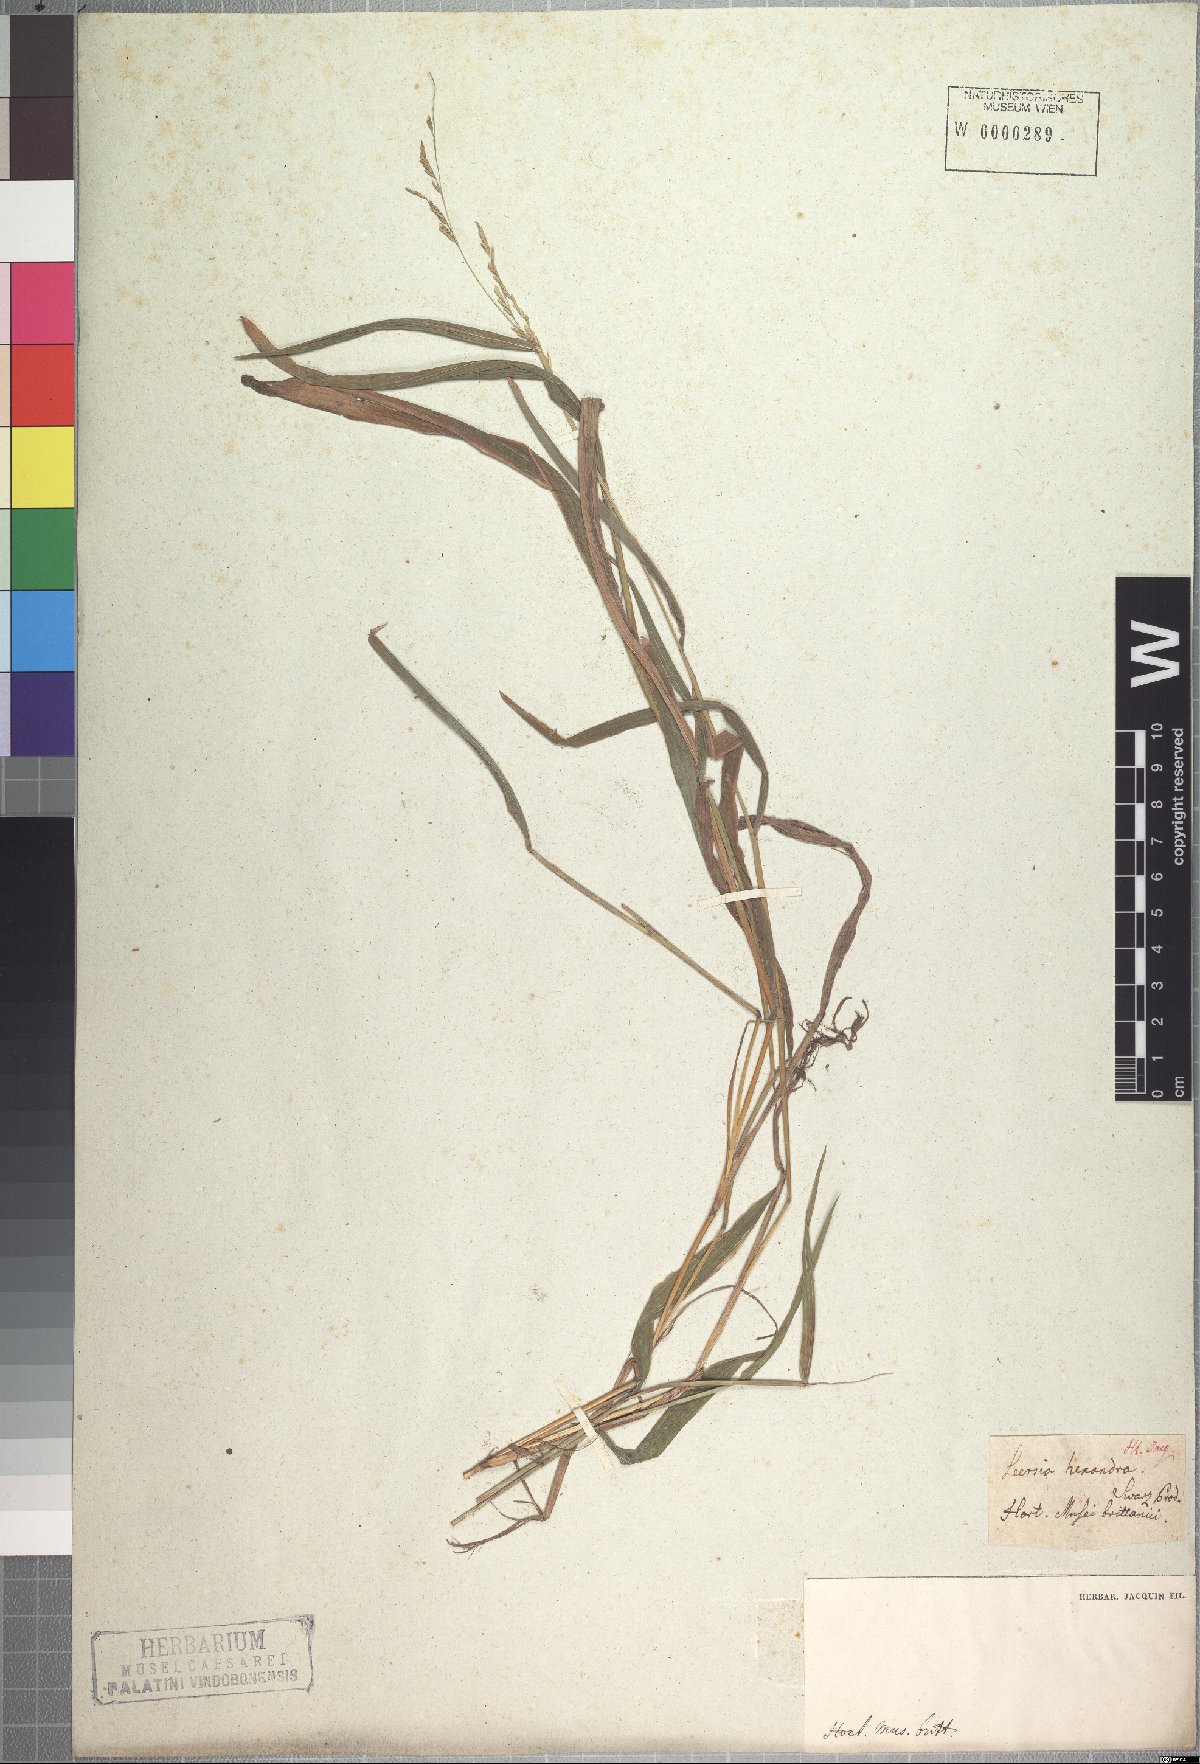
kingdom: Plantae
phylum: Tracheophyta
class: Liliopsida
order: Poales
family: Poaceae
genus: Leersia
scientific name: Leersia hexandra
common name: Southern cut grass
